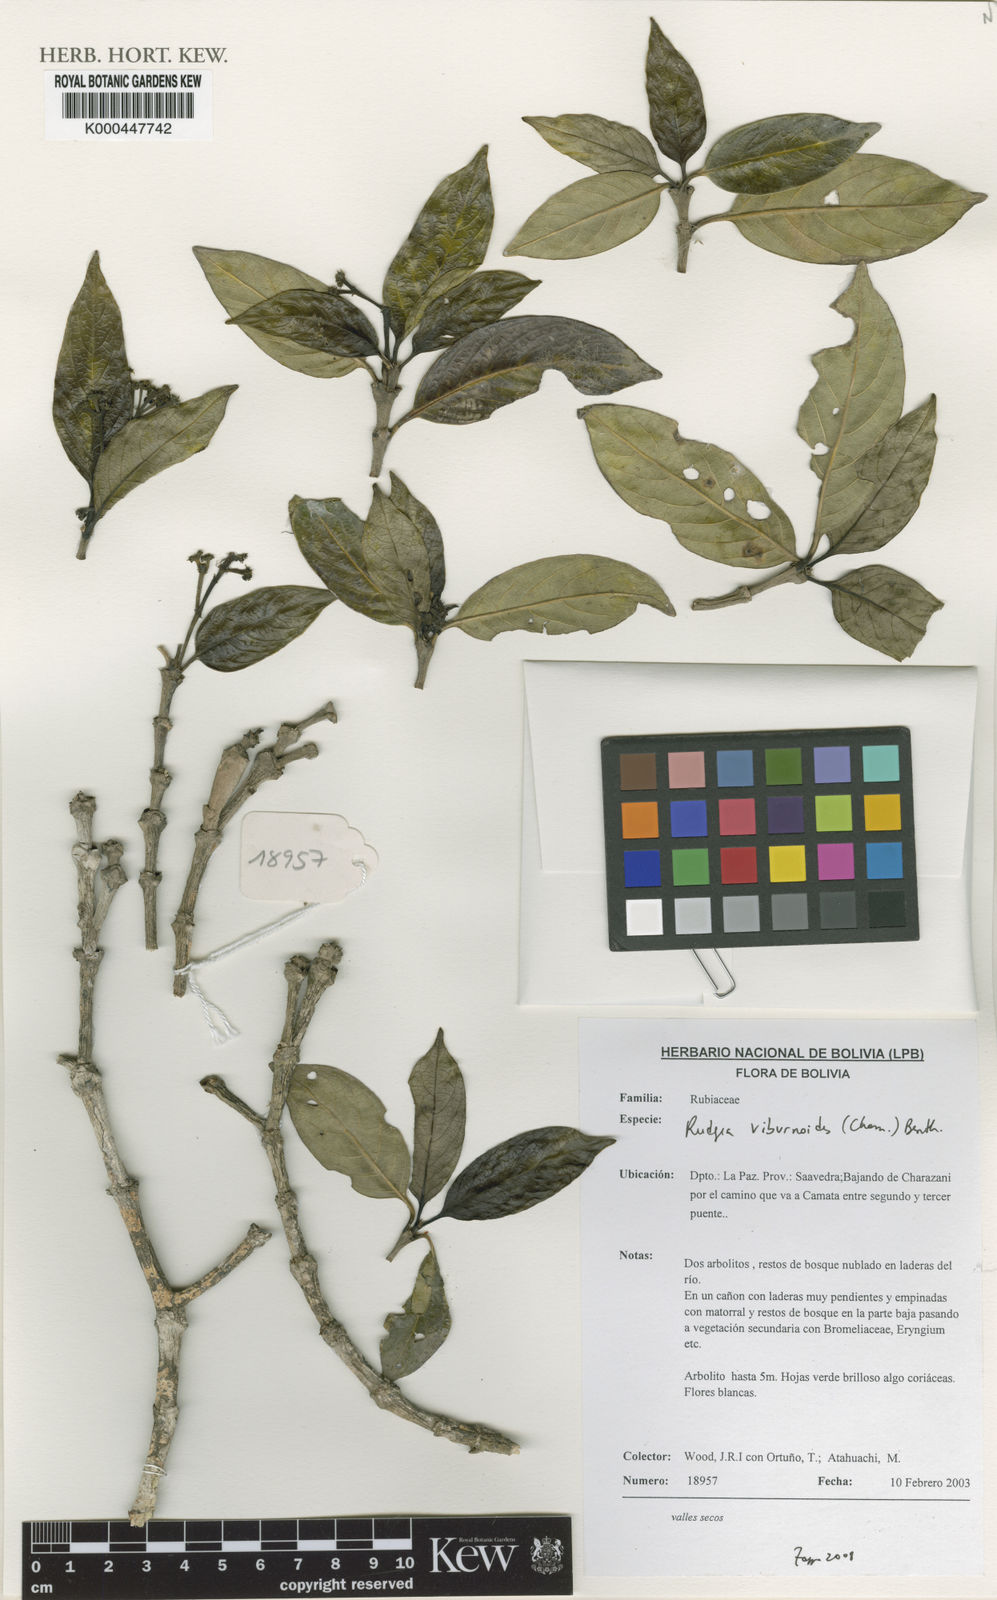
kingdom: Plantae
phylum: Tracheophyta
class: Magnoliopsida
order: Gentianales
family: Rubiaceae
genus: Rudgea
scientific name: Rudgea viburnoides
